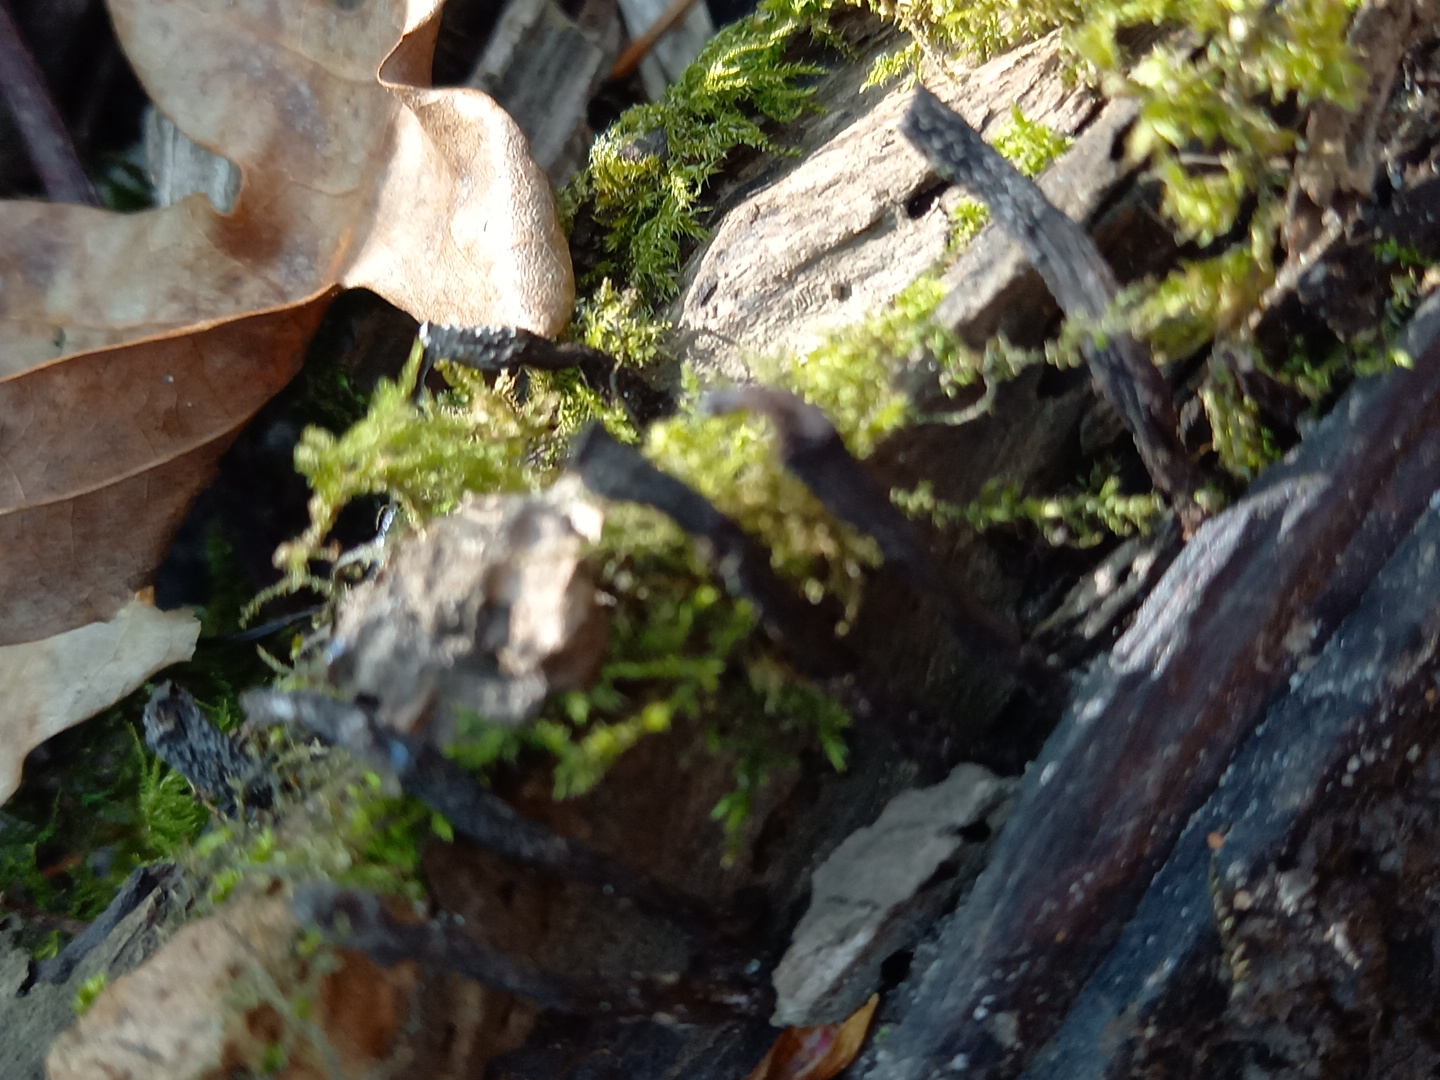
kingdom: Fungi
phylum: Ascomycota
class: Sordariomycetes
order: Xylariales
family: Xylariaceae
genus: Xylaria
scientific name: Xylaria hypoxylon
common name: grenet stødsvamp
